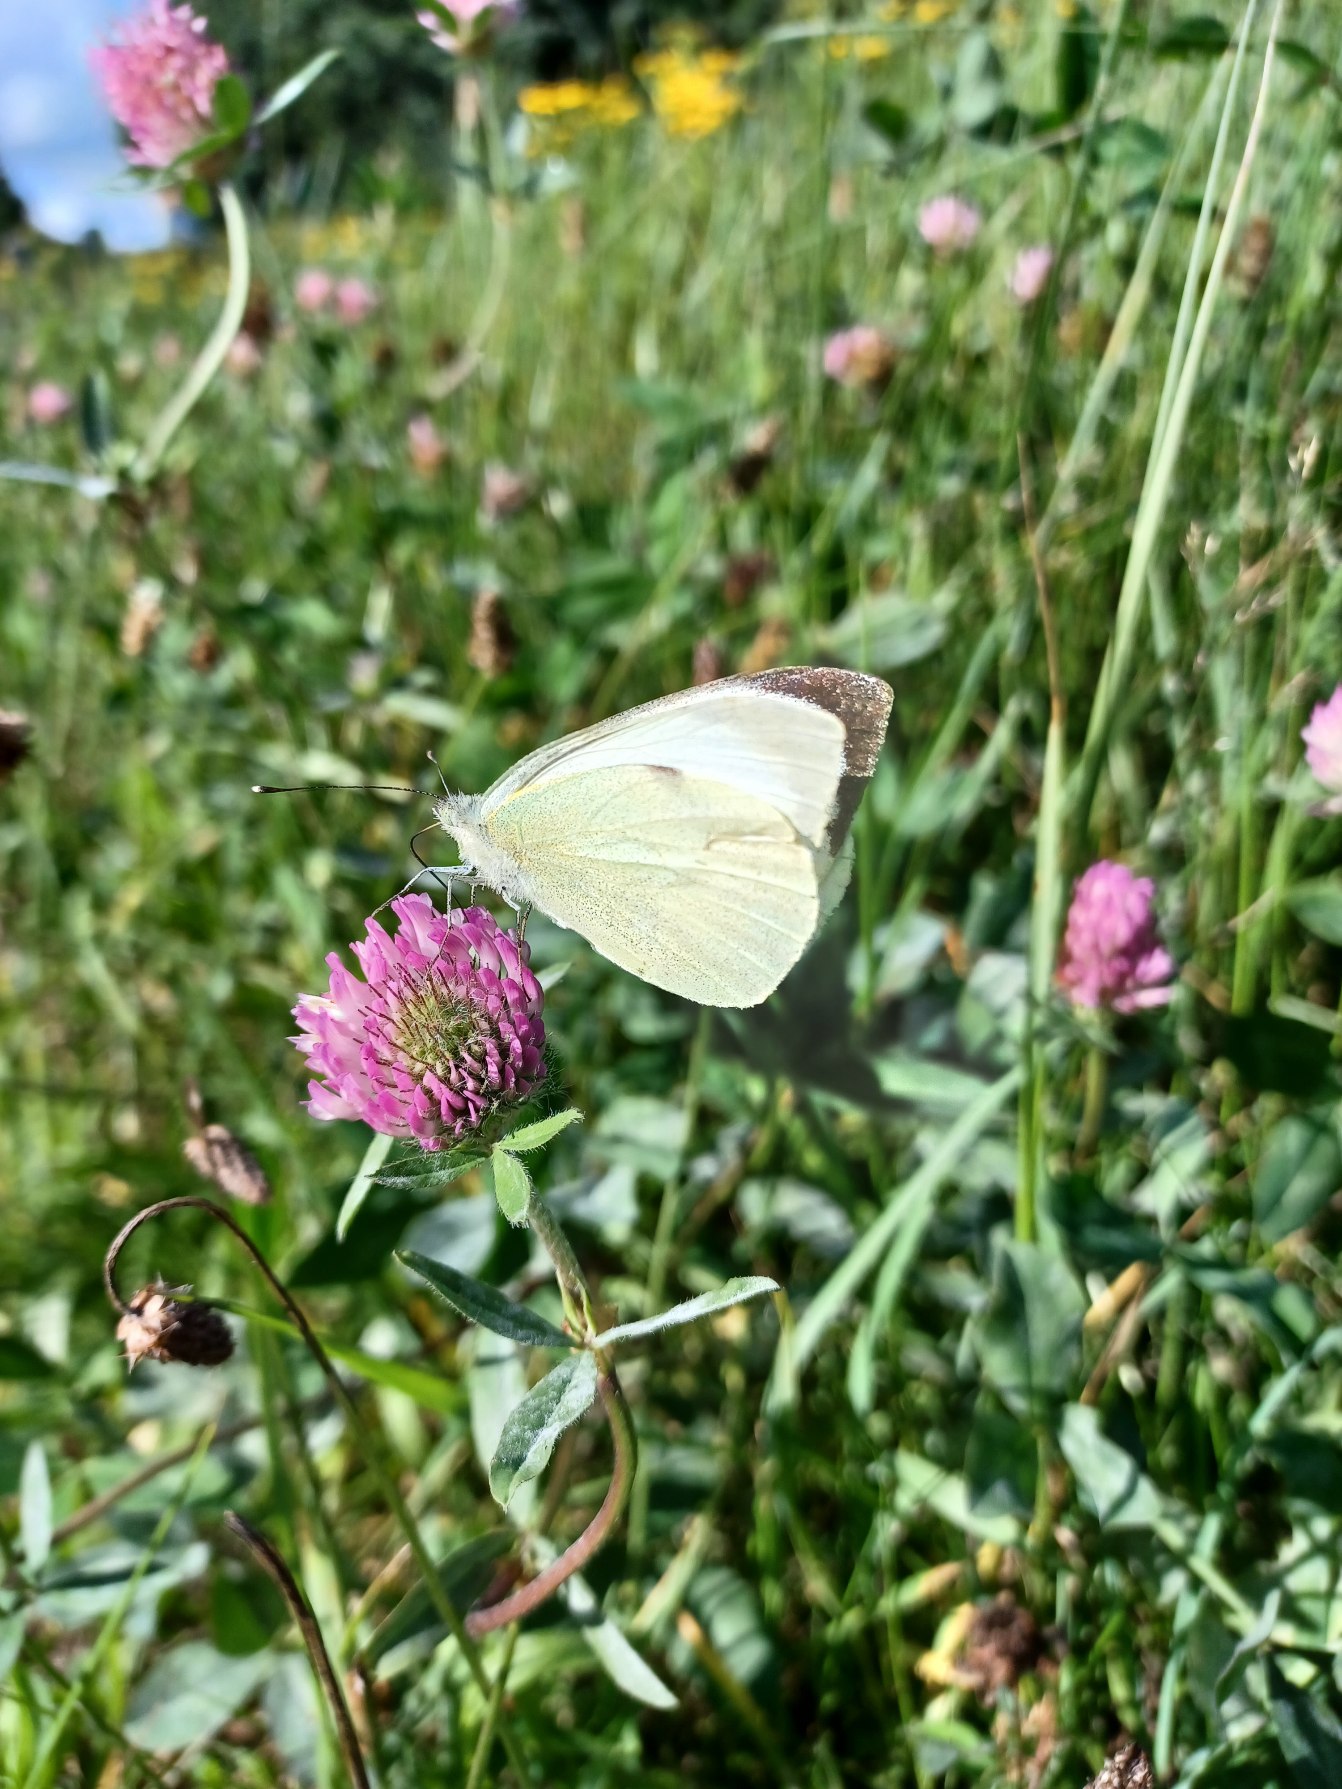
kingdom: Animalia
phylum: Arthropoda
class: Insecta
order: Lepidoptera
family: Pieridae
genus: Pieris
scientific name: Pieris brassicae
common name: Stor kålsommerfugl
